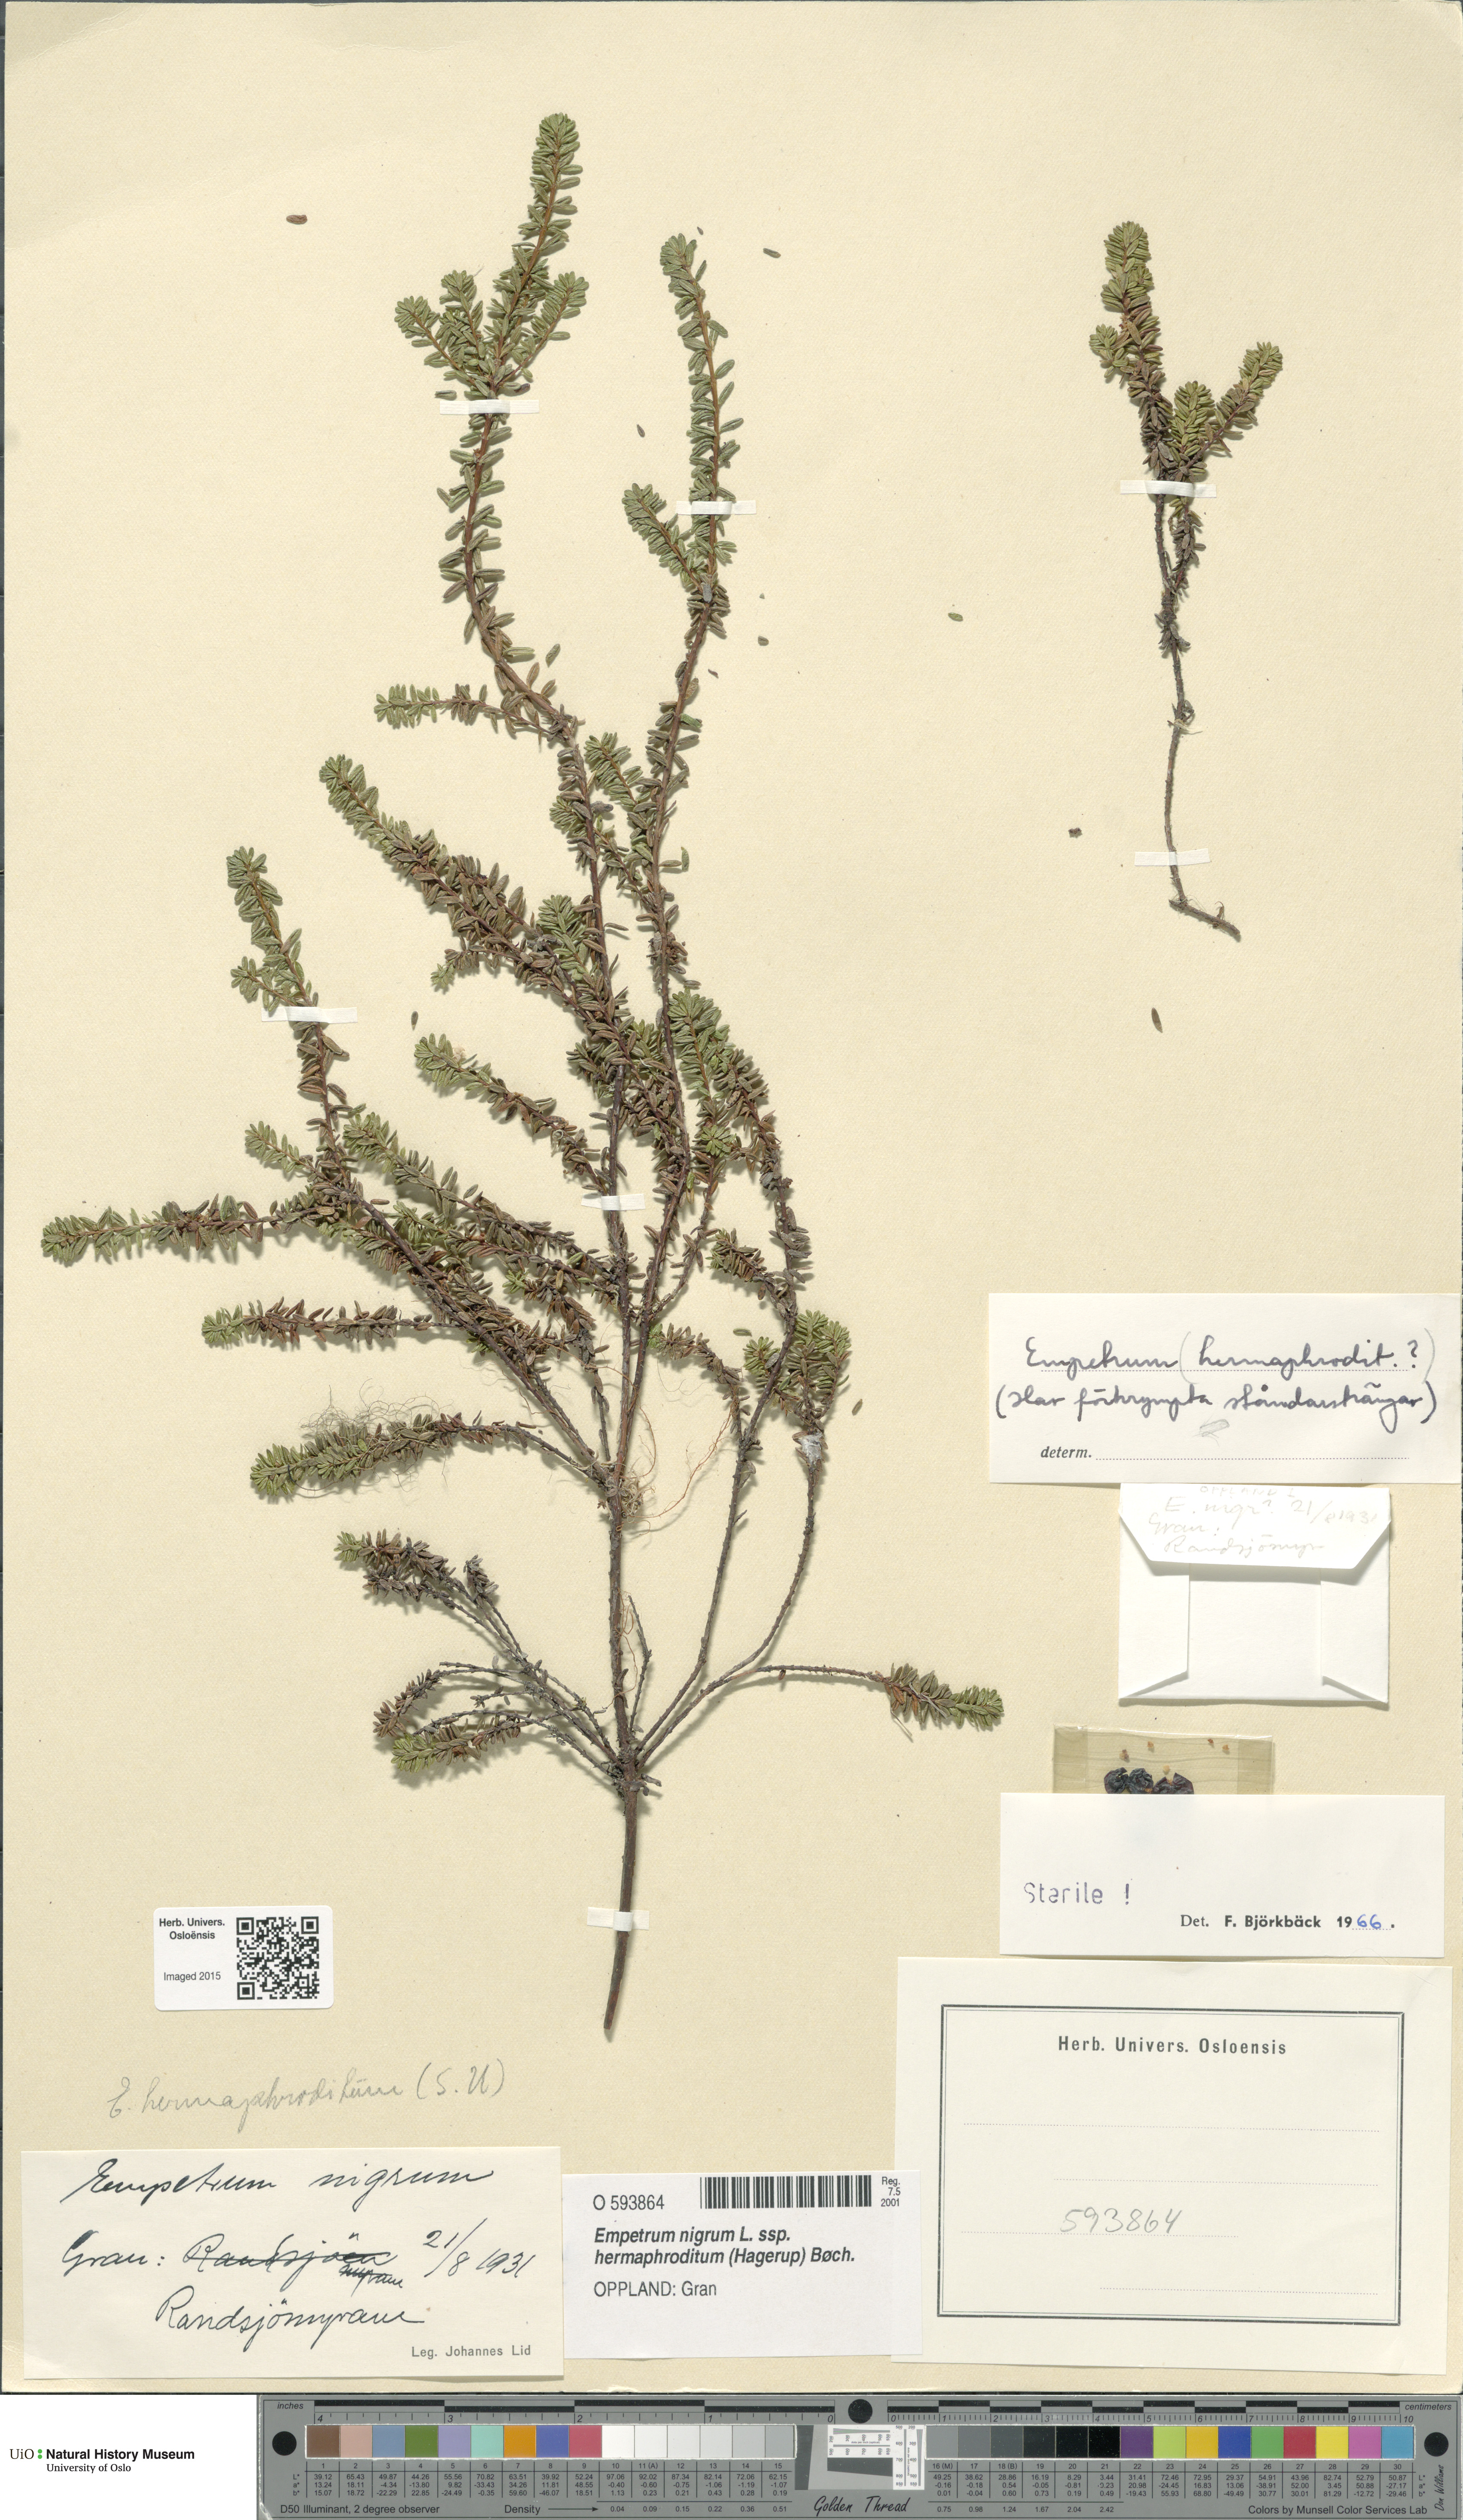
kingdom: Plantae
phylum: Tracheophyta
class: Magnoliopsida
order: Ericales
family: Ericaceae
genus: Empetrum
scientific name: Empetrum hermaphroditum
